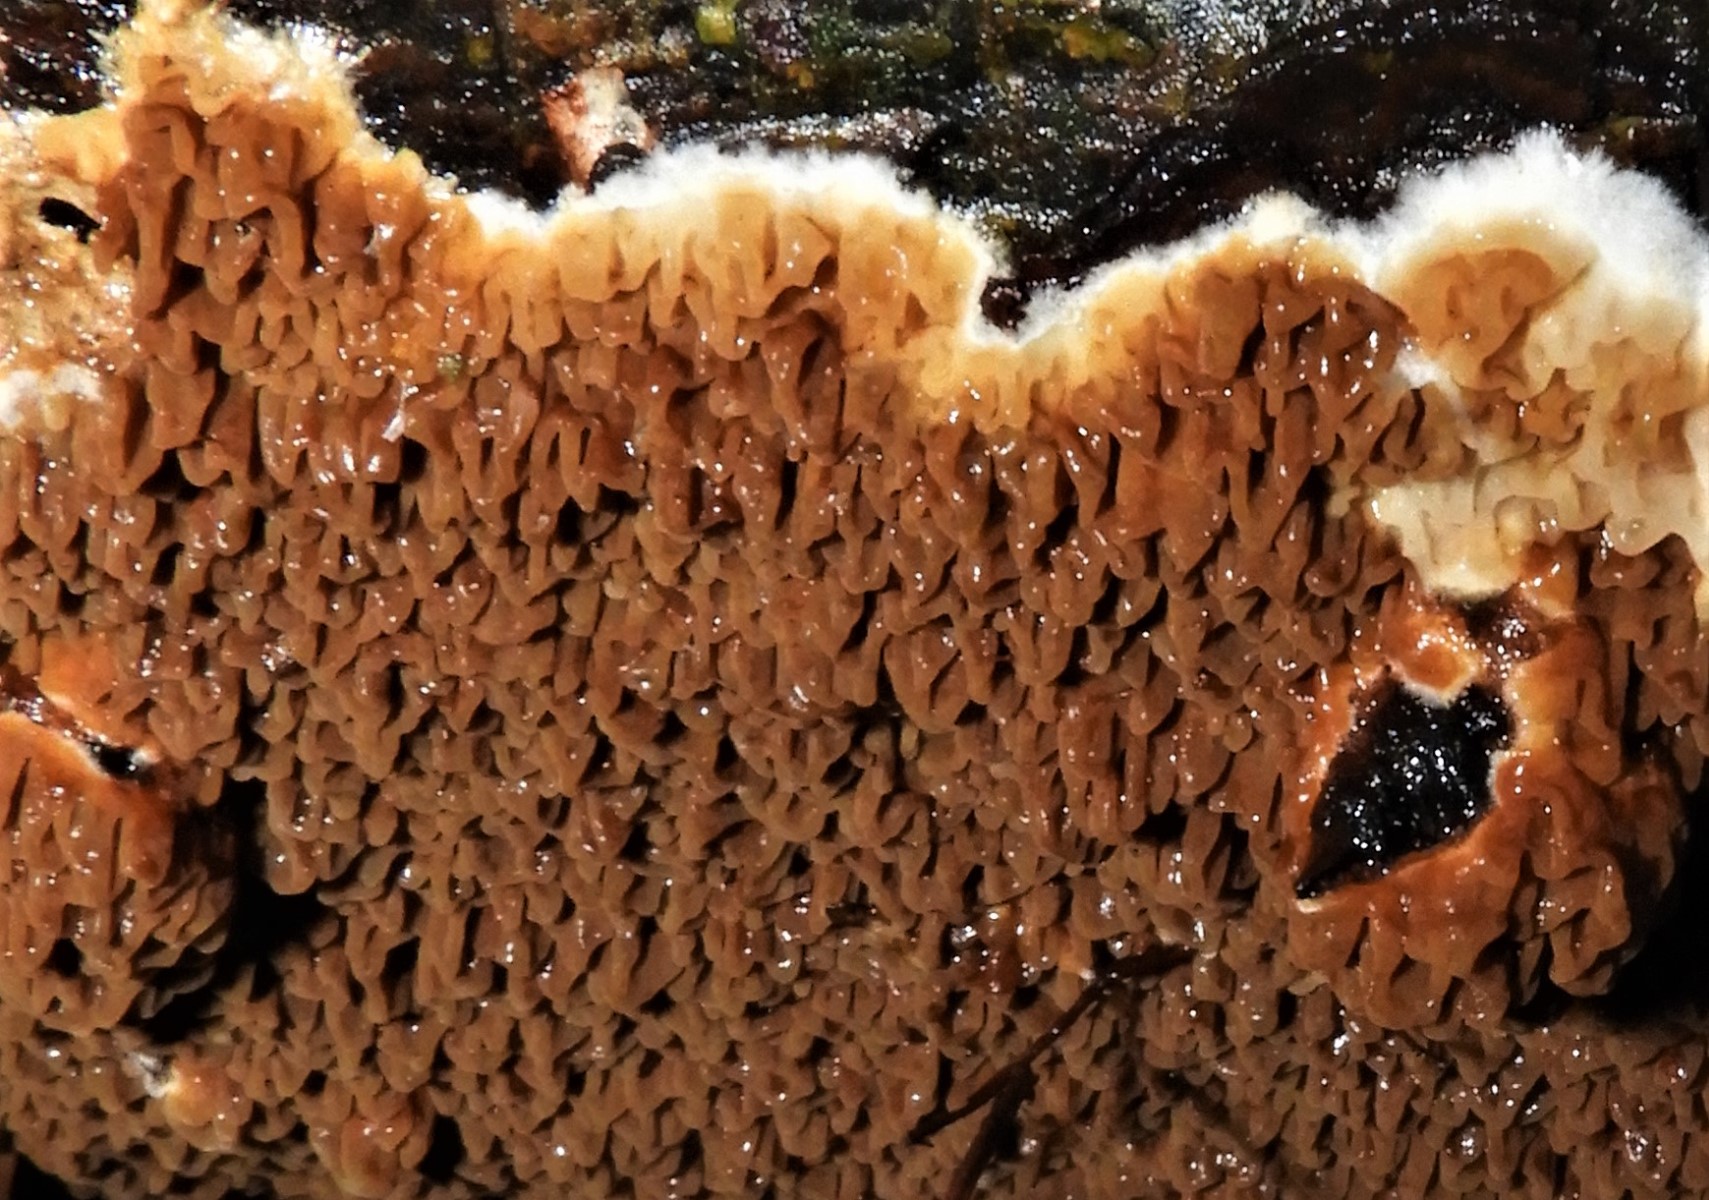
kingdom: Fungi
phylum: Basidiomycota
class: Agaricomycetes
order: Boletales
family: Serpulaceae
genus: Serpula
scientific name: Serpula himantioides
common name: tyndkødet hussvamp
